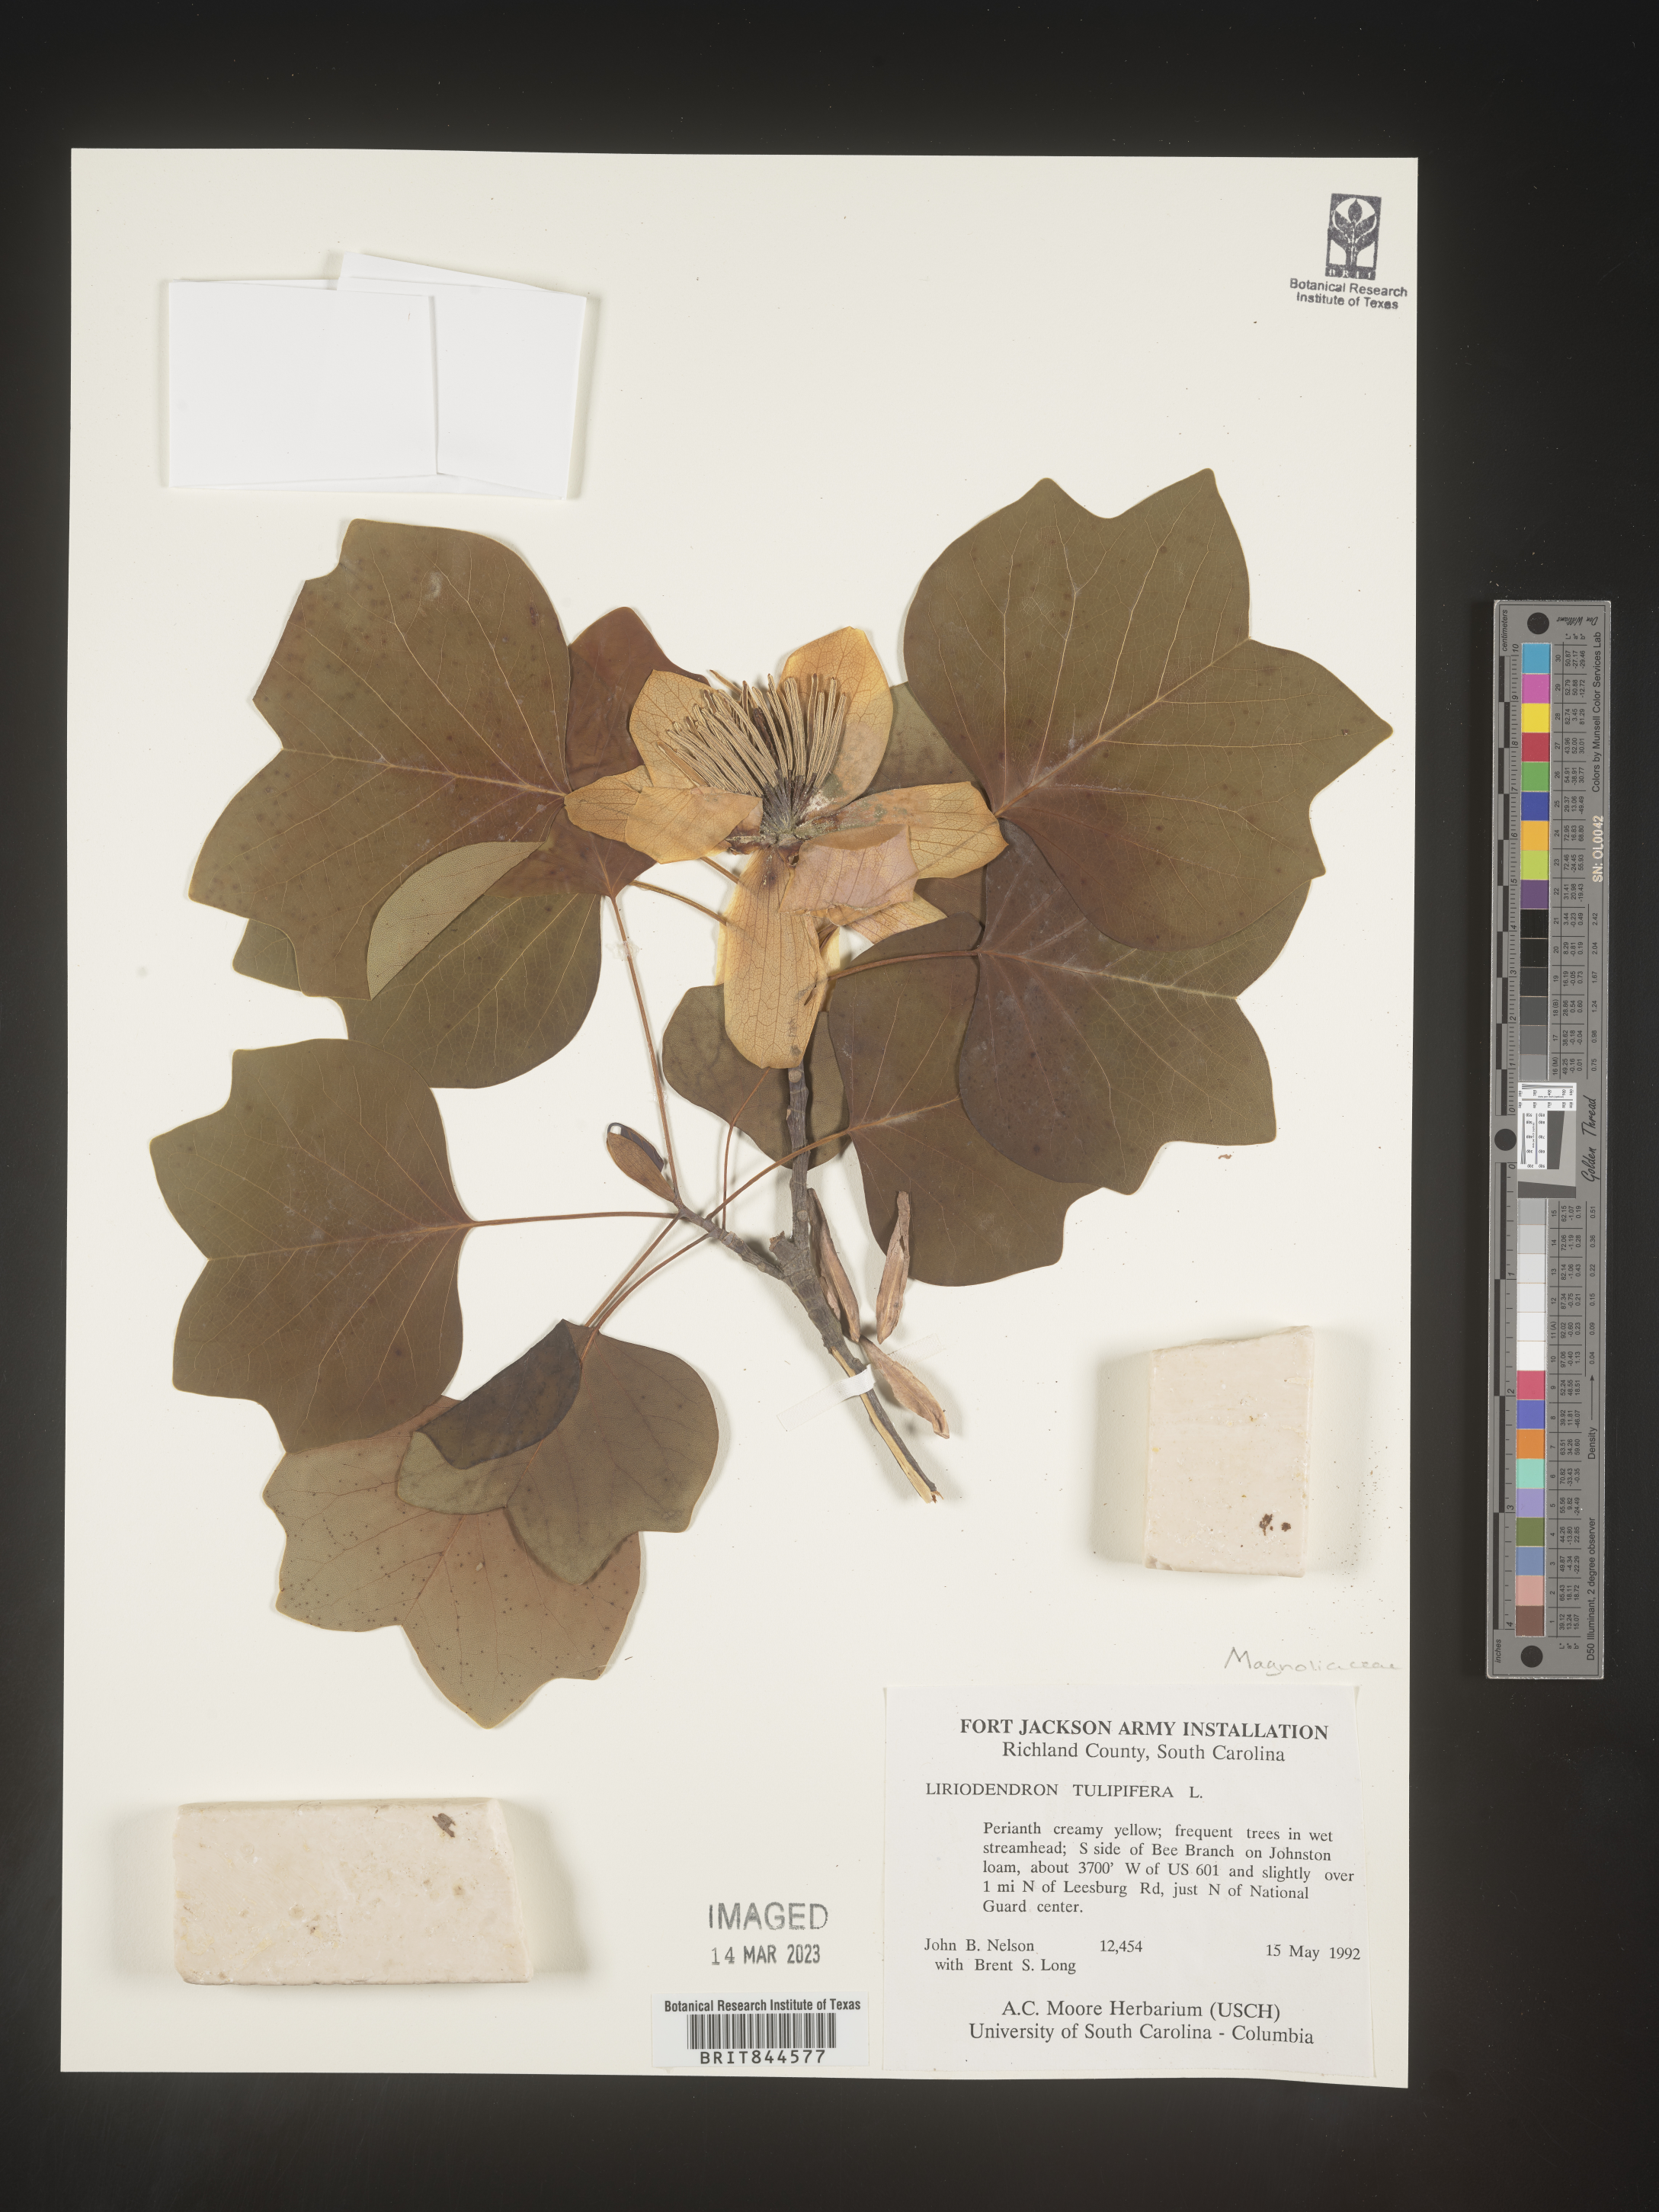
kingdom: Plantae
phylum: Tracheophyta
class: Magnoliopsida
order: Magnoliales
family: Magnoliaceae
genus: Liriodendron
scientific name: Liriodendron tulipifera
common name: Tulip tree
